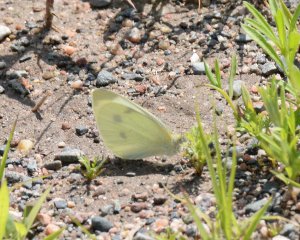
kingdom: Animalia
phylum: Arthropoda
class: Insecta
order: Lepidoptera
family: Pieridae
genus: Pieris
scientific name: Pieris rapae
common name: Cabbage White
